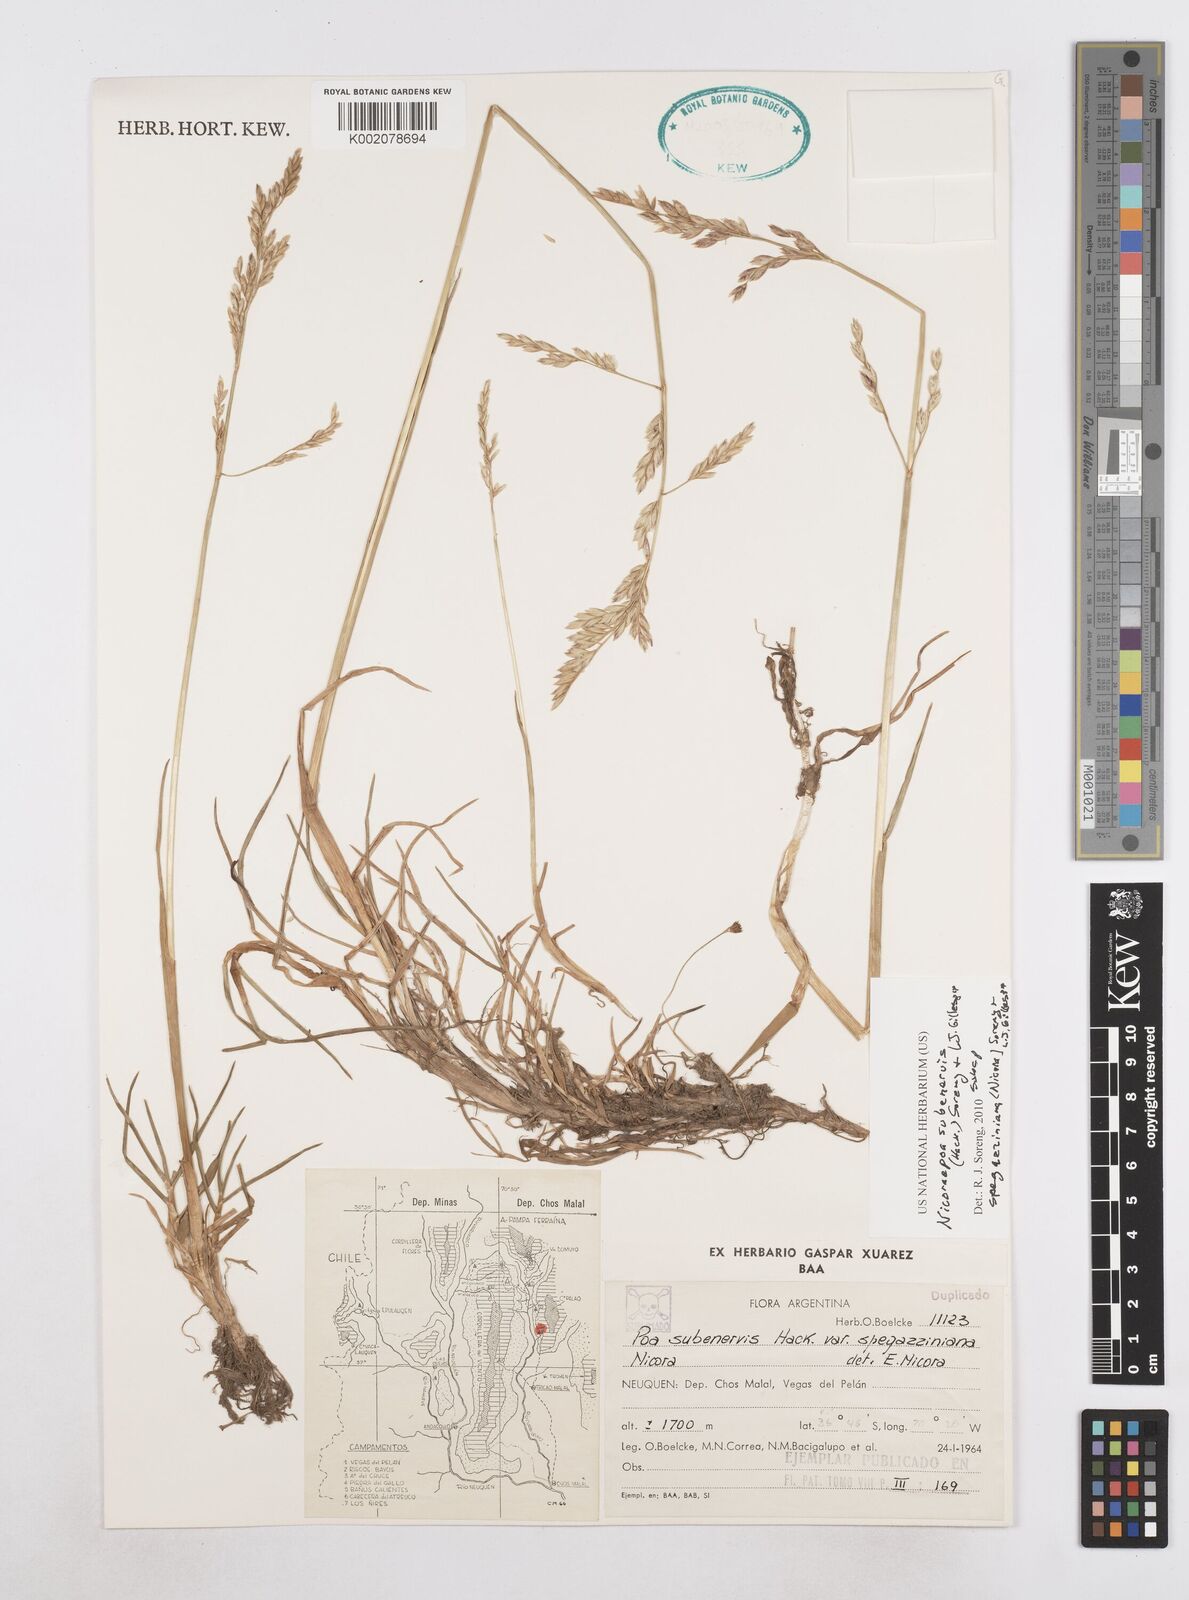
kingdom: Plantae
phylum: Tracheophyta
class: Liliopsida
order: Poales
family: Poaceae
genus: Nicoraepoa
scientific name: Nicoraepoa subenervis
